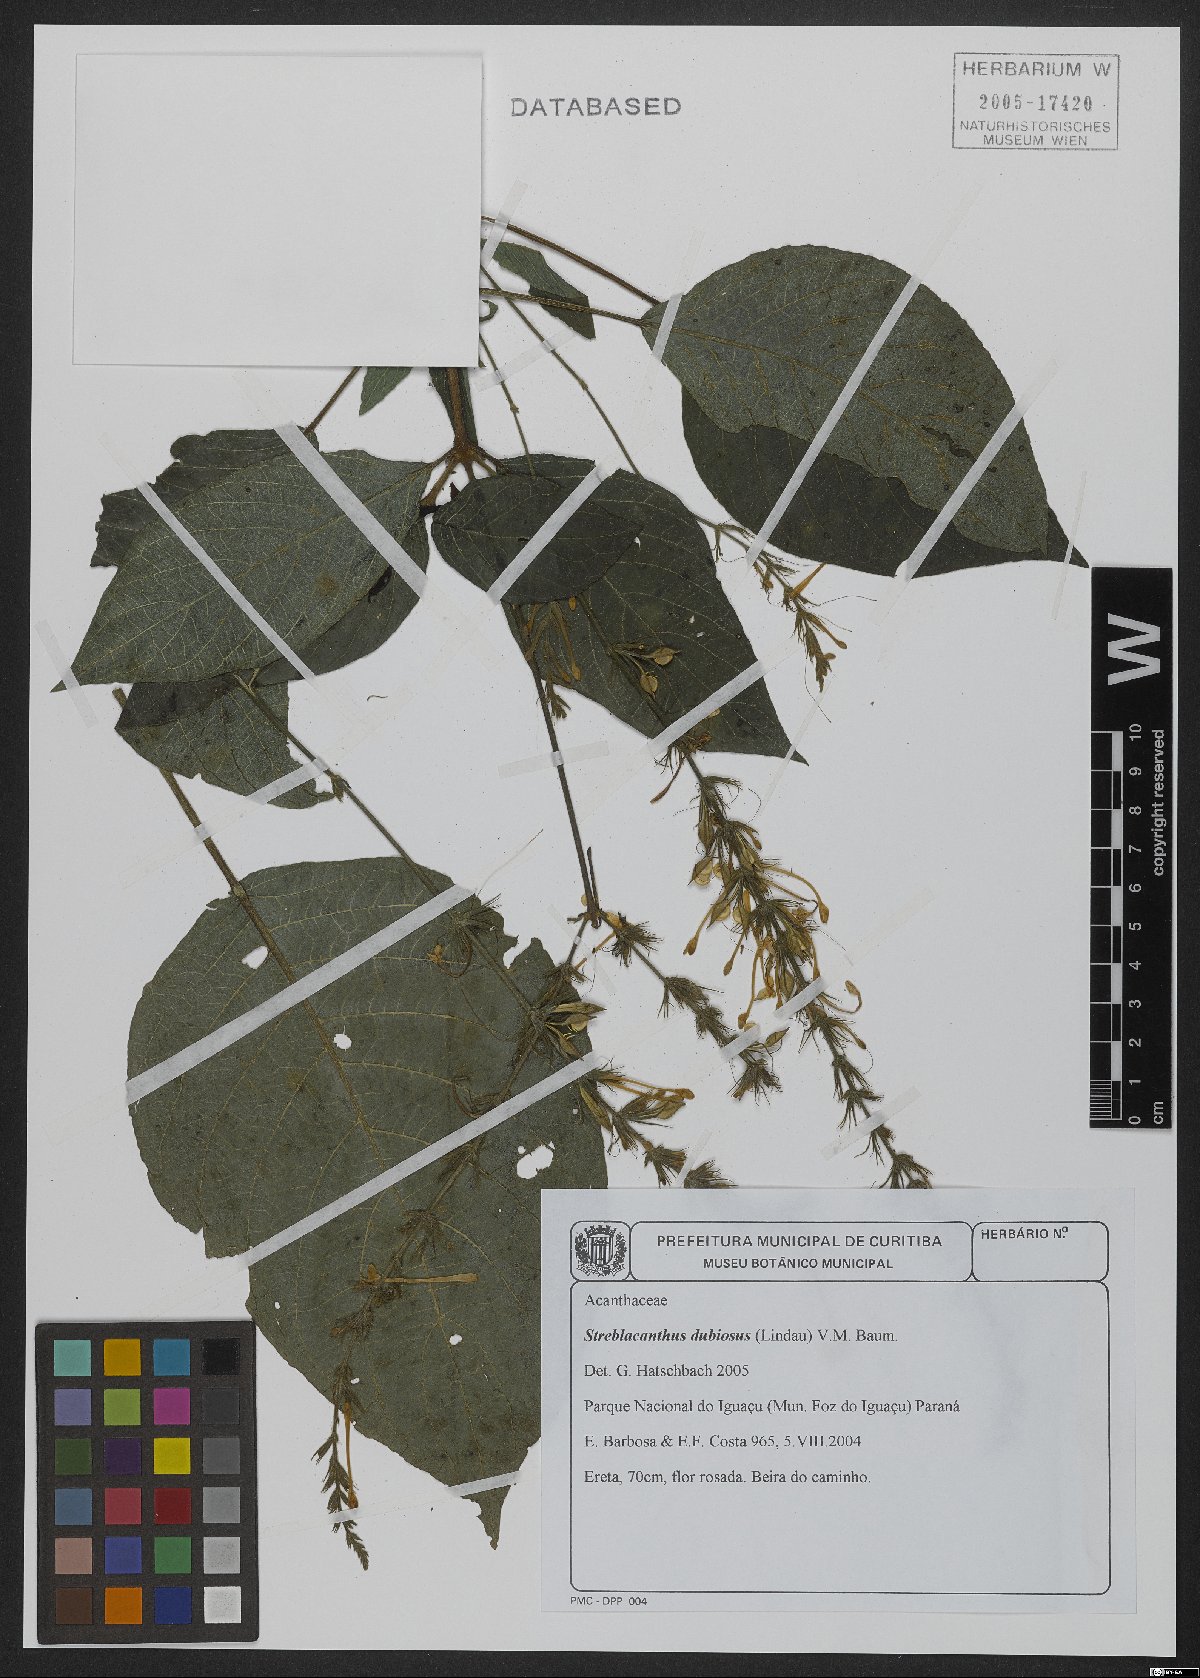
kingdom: Plantae
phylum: Tracheophyta
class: Magnoliopsida
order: Lamiales
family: Acanthaceae
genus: Pachystachys
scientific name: Pachystachys dubiosa
